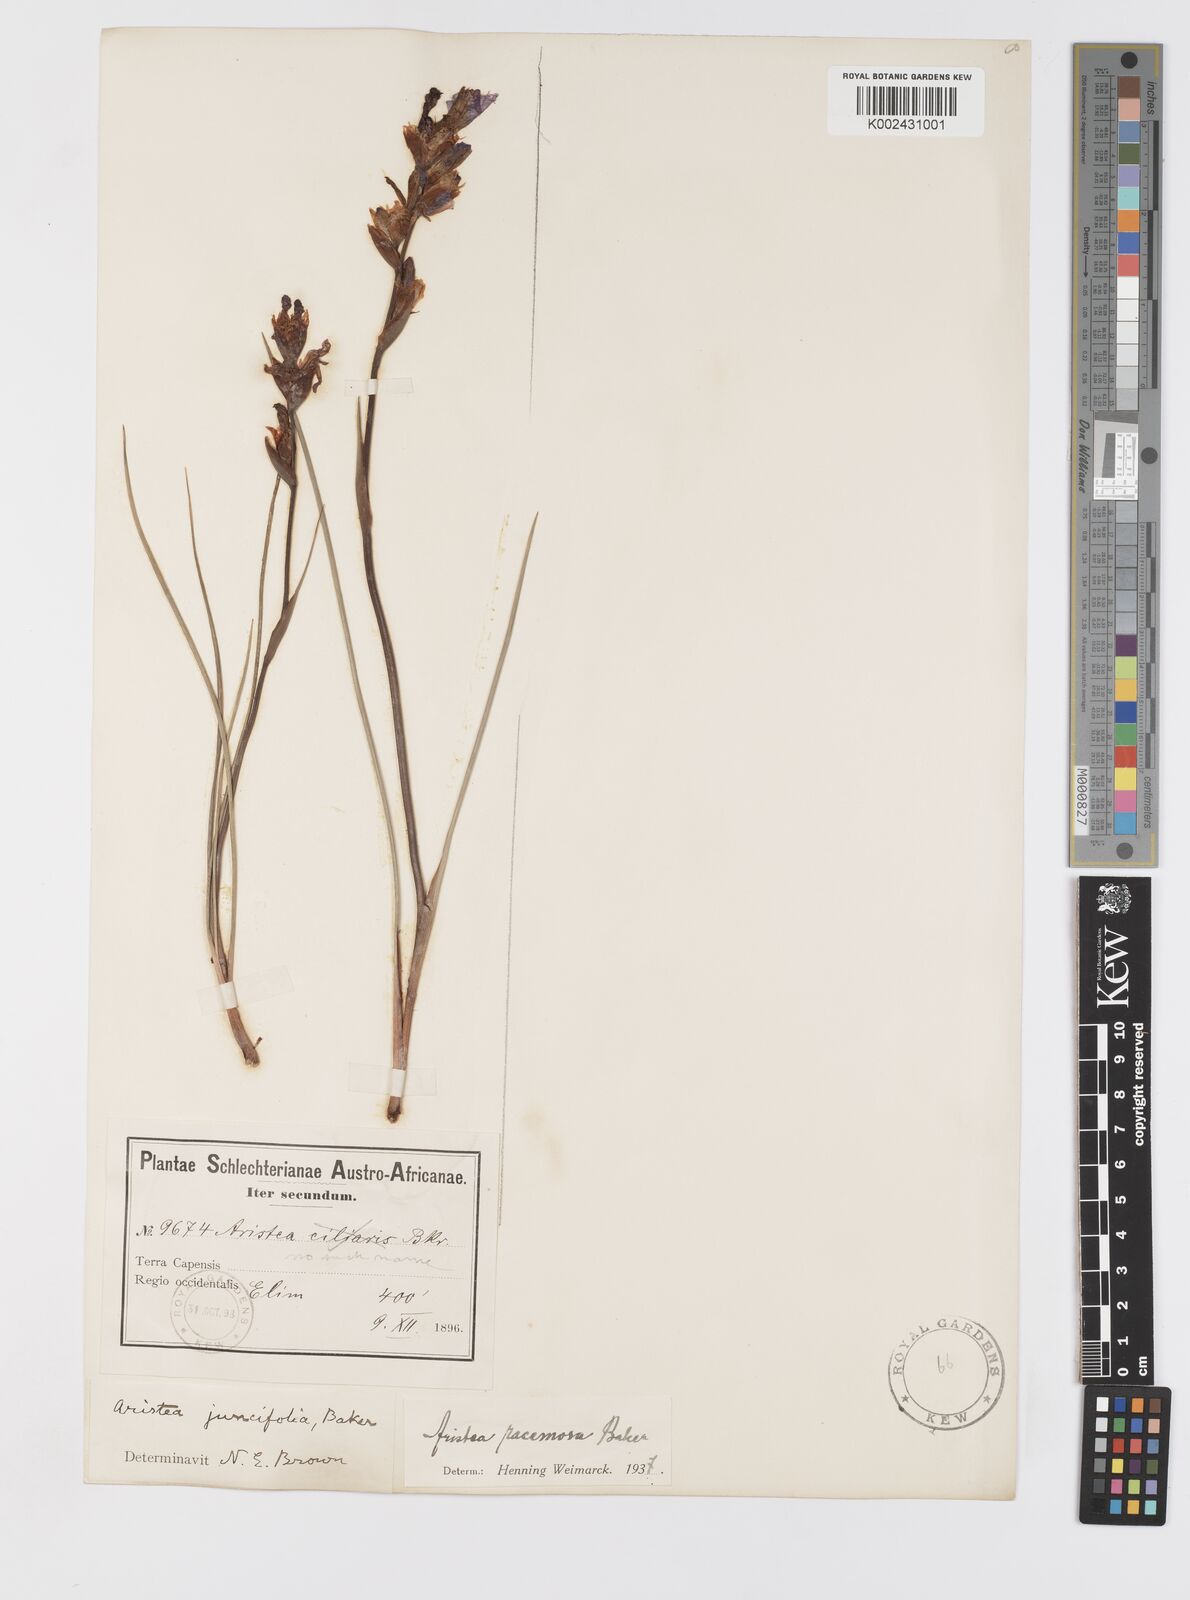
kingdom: Plantae
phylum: Tracheophyta
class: Liliopsida
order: Asparagales
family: Iridaceae
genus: Aristea
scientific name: Aristea racemosa
